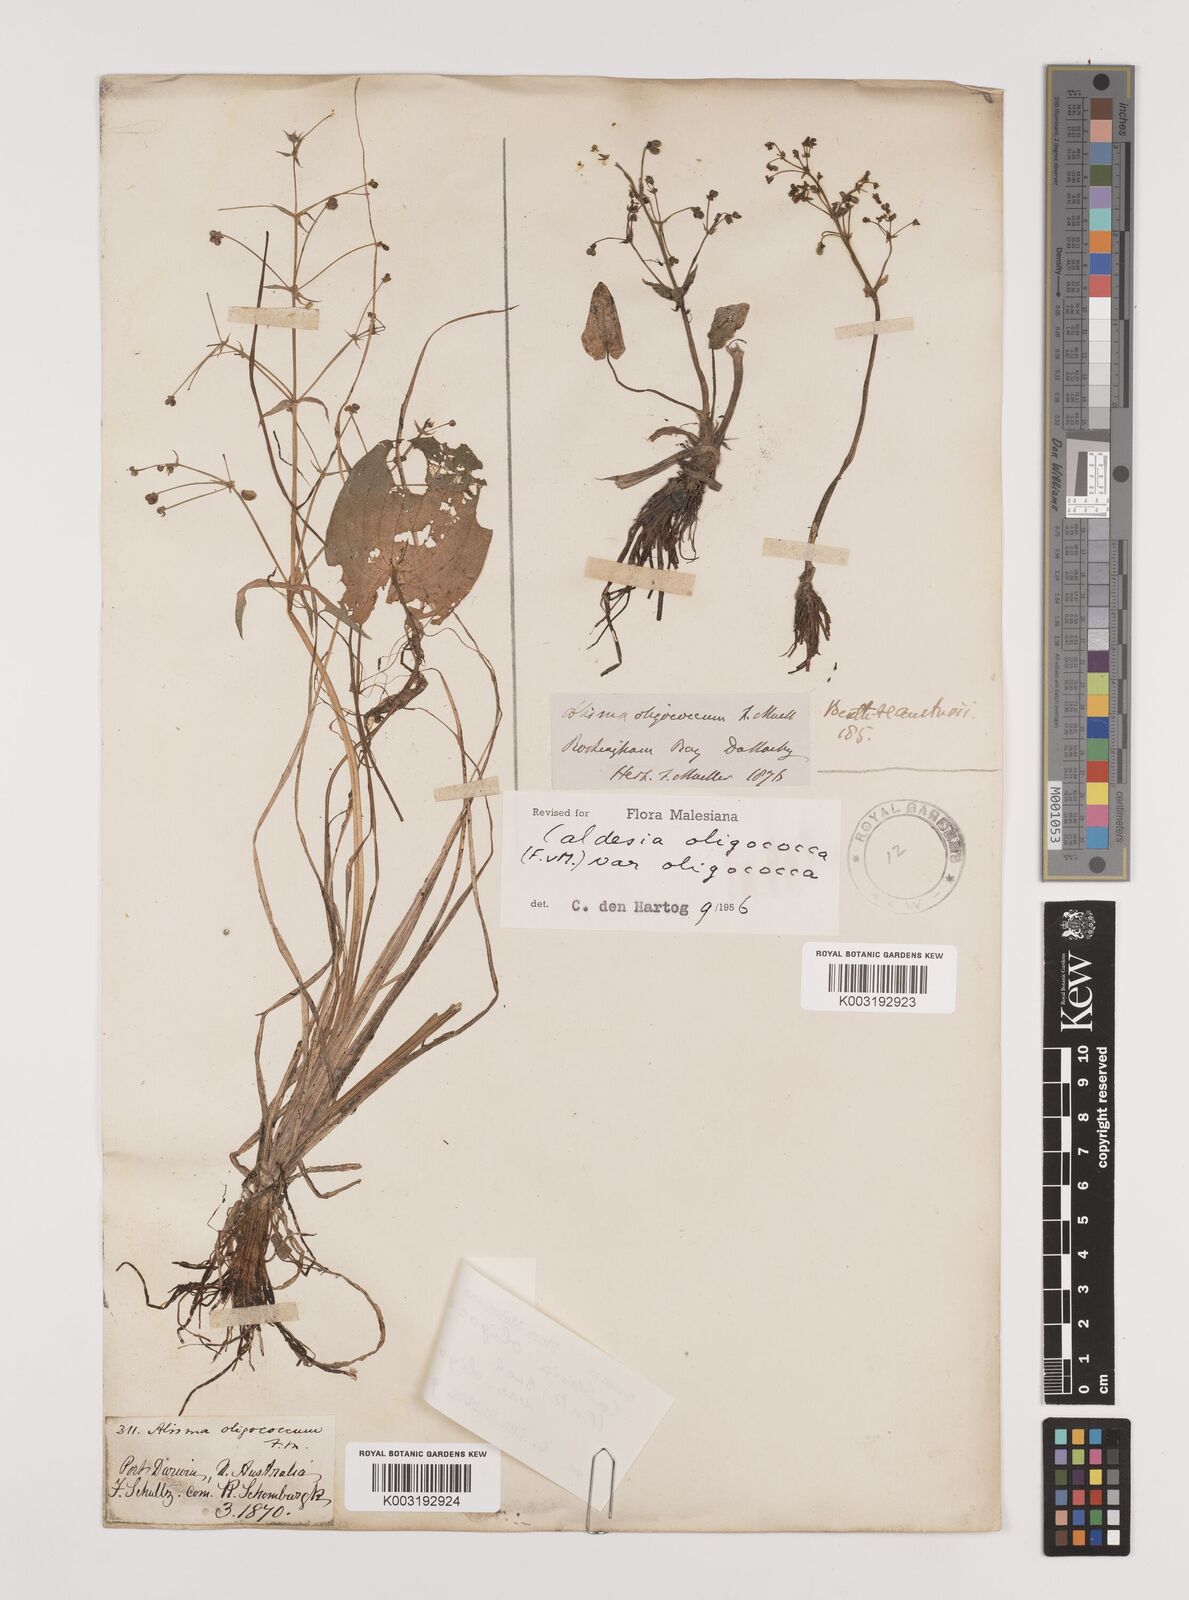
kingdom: Plantae
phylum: Tracheophyta
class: Liliopsida
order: Alismatales
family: Alismataceae
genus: Albidella
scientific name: Albidella oligococca
